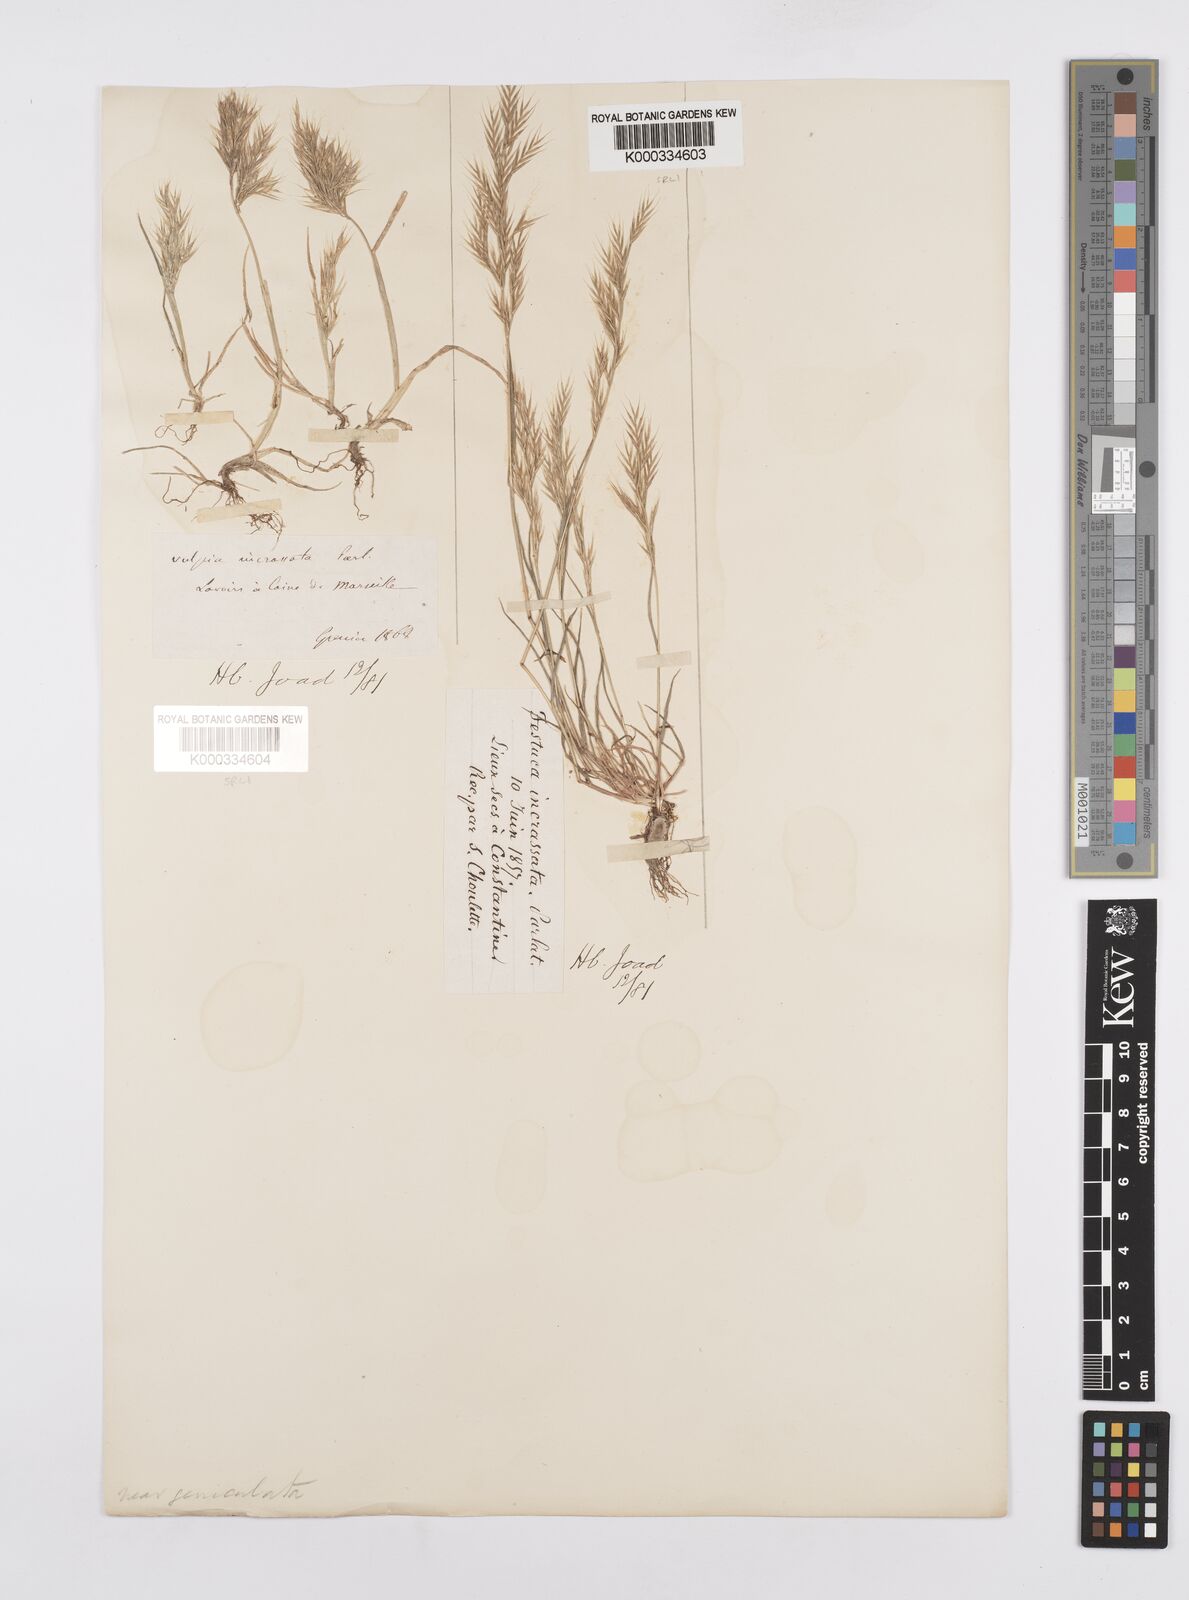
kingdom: Plantae
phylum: Tracheophyta
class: Liliopsida
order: Poales
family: Poaceae
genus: Vulpiella
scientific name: Vulpiella stipoides
